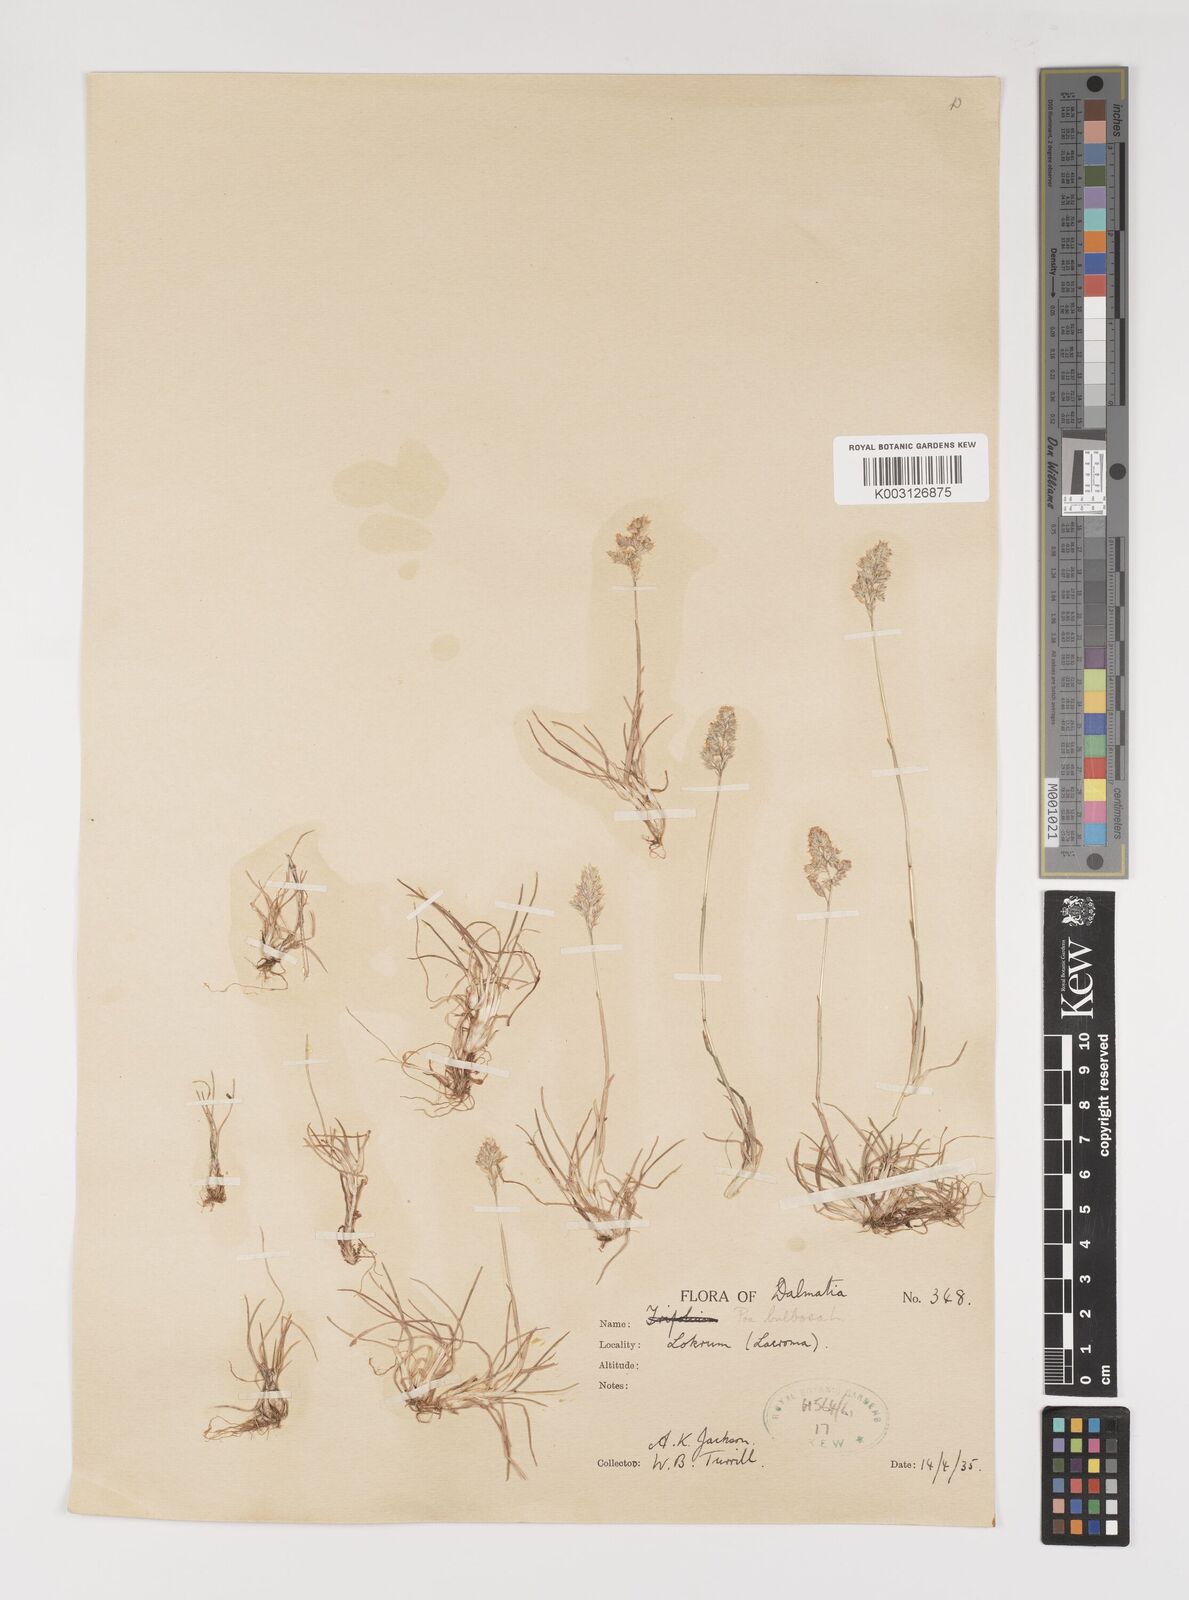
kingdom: Plantae
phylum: Tracheophyta
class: Liliopsida
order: Poales
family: Poaceae
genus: Poa
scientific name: Poa bulbosa
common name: Bulbous bluegrass
